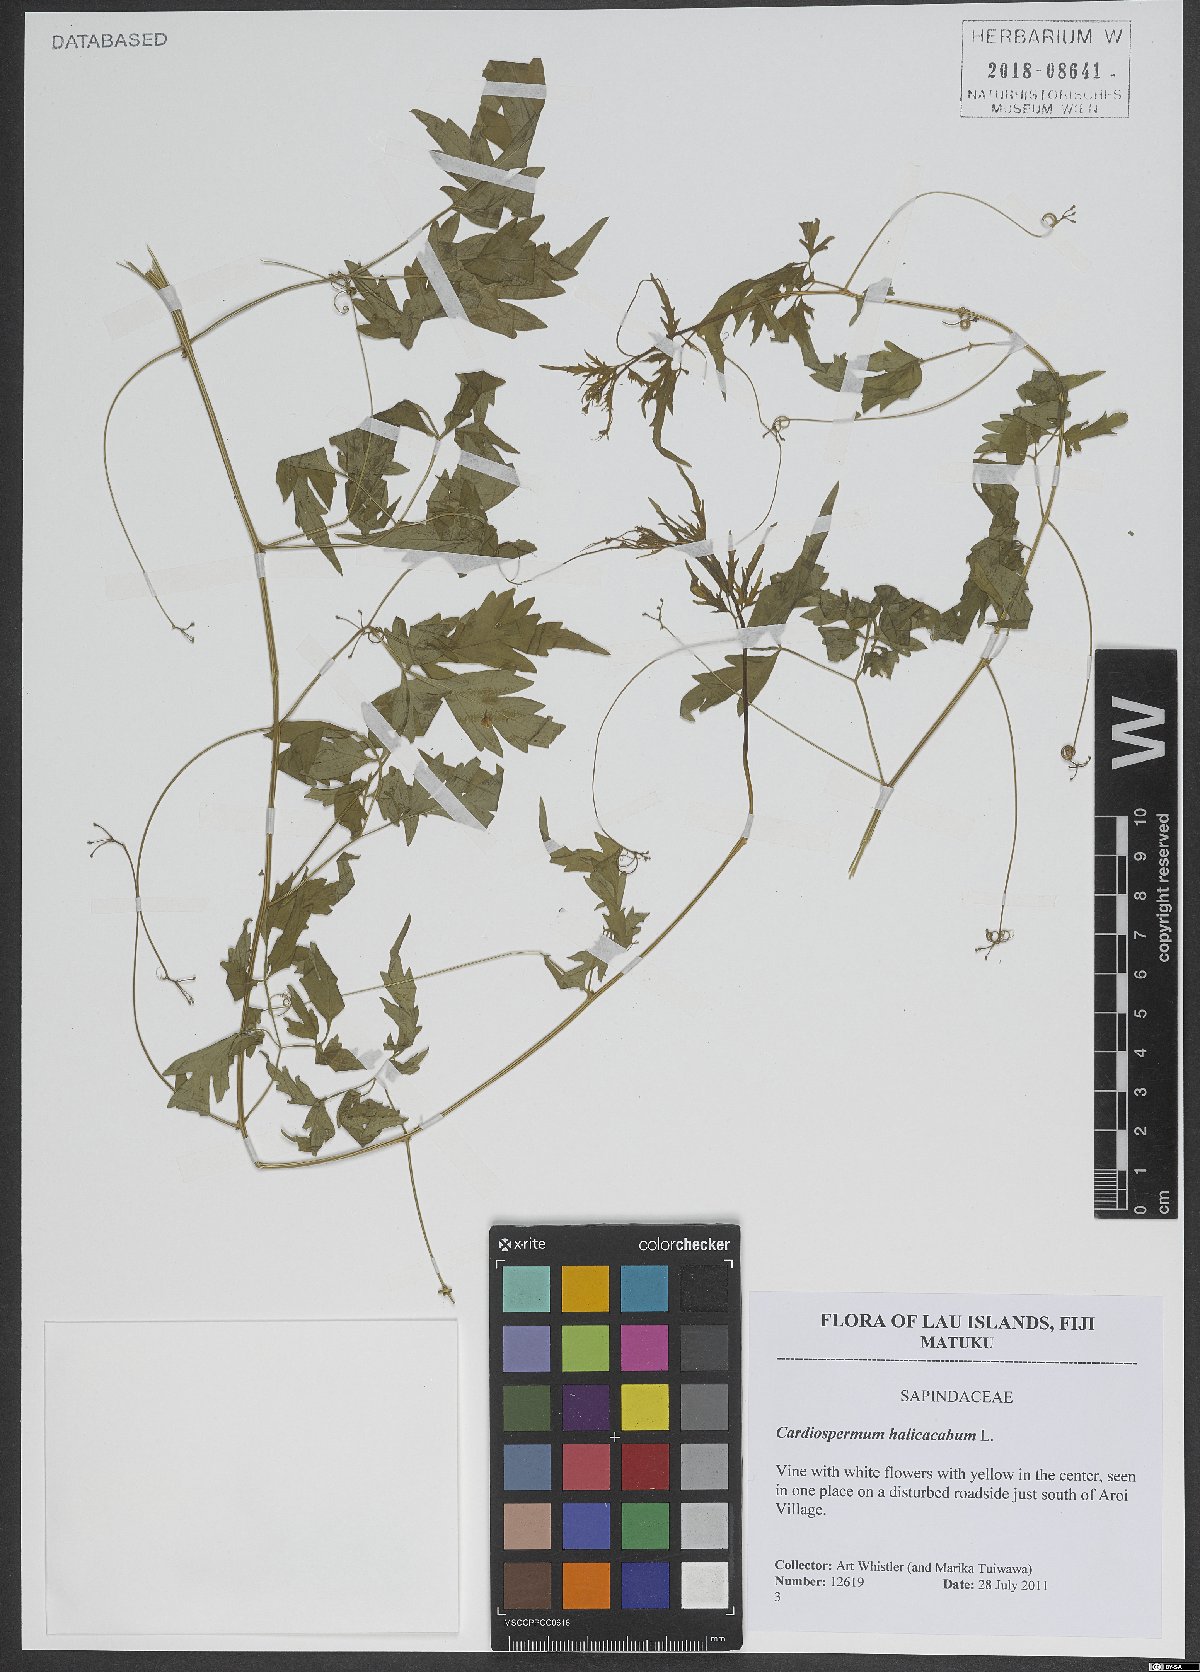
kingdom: Plantae
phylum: Tracheophyta
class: Magnoliopsida
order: Sapindales
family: Sapindaceae
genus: Cardiospermum
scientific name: Cardiospermum halicacabum
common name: Balloon vine
